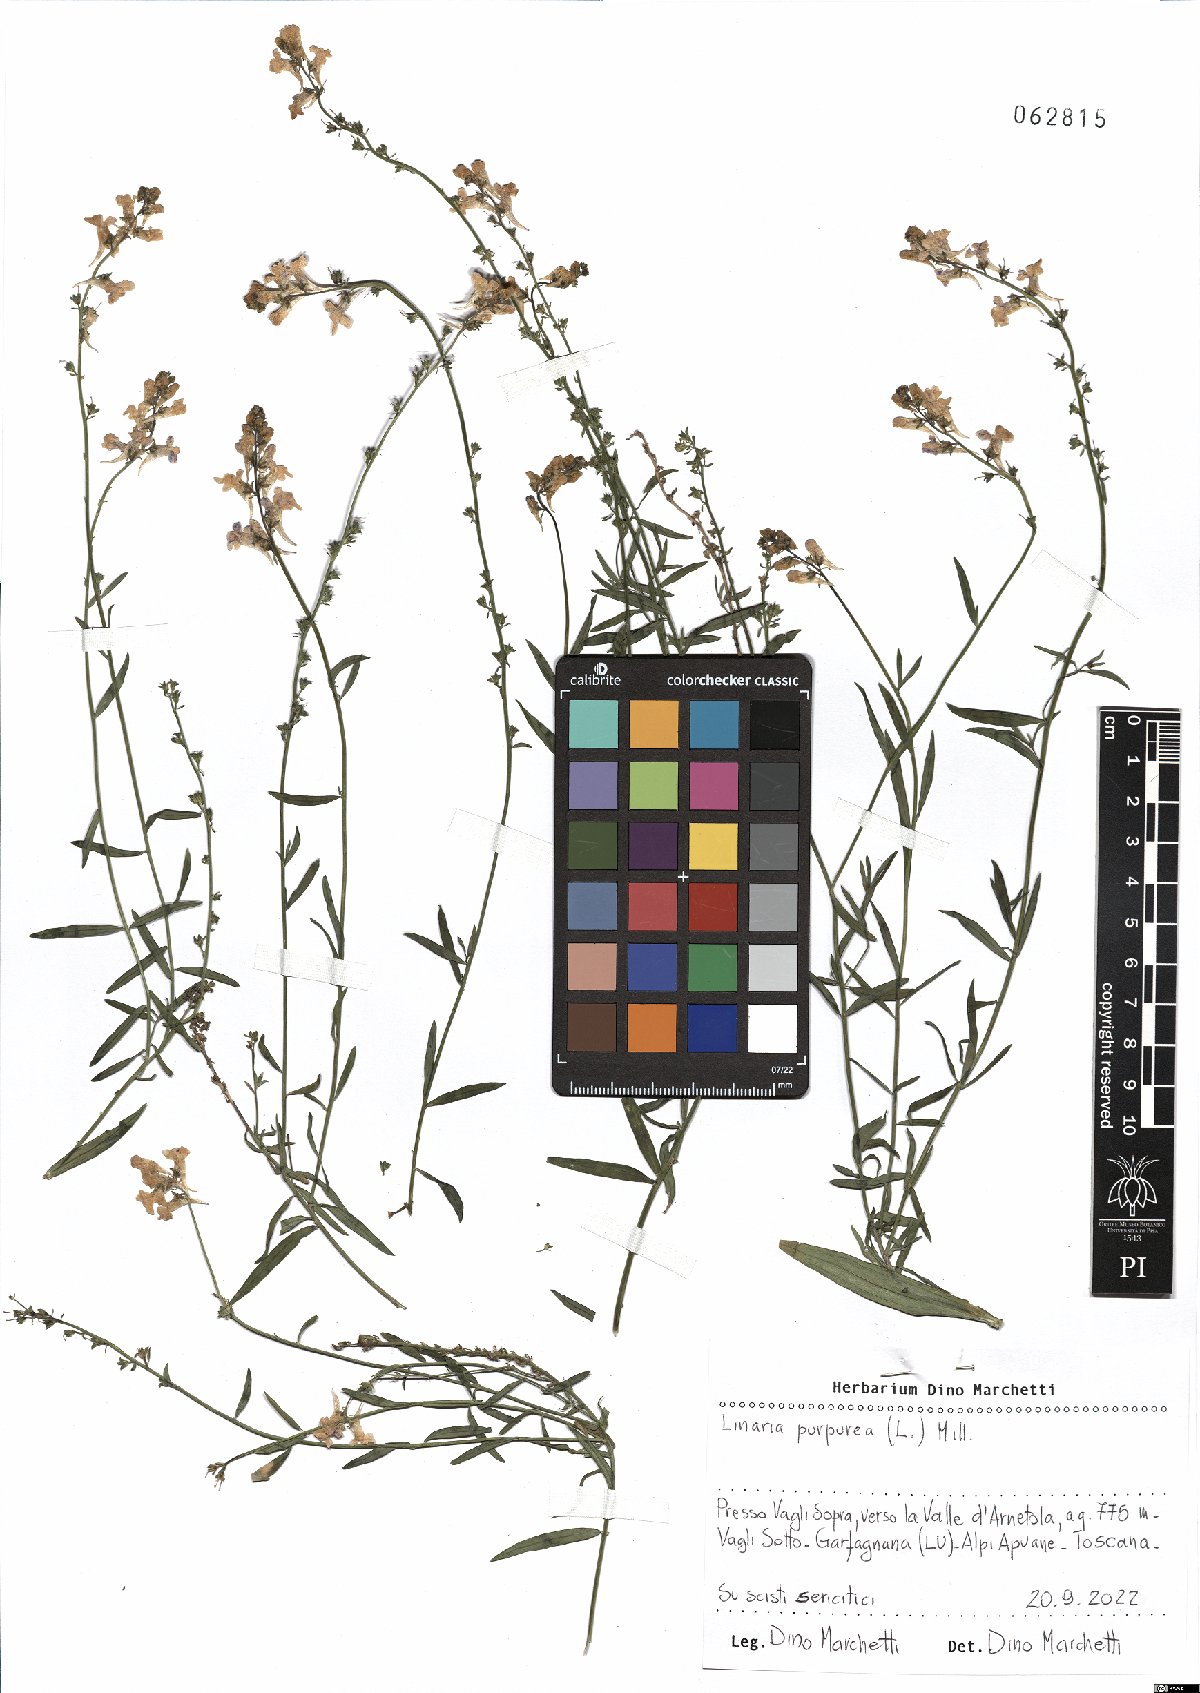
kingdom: Plantae
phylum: Tracheophyta
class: Magnoliopsida
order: Lamiales
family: Plantaginaceae
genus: Linaria
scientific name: Linaria purpurea
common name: Purple toadflax
